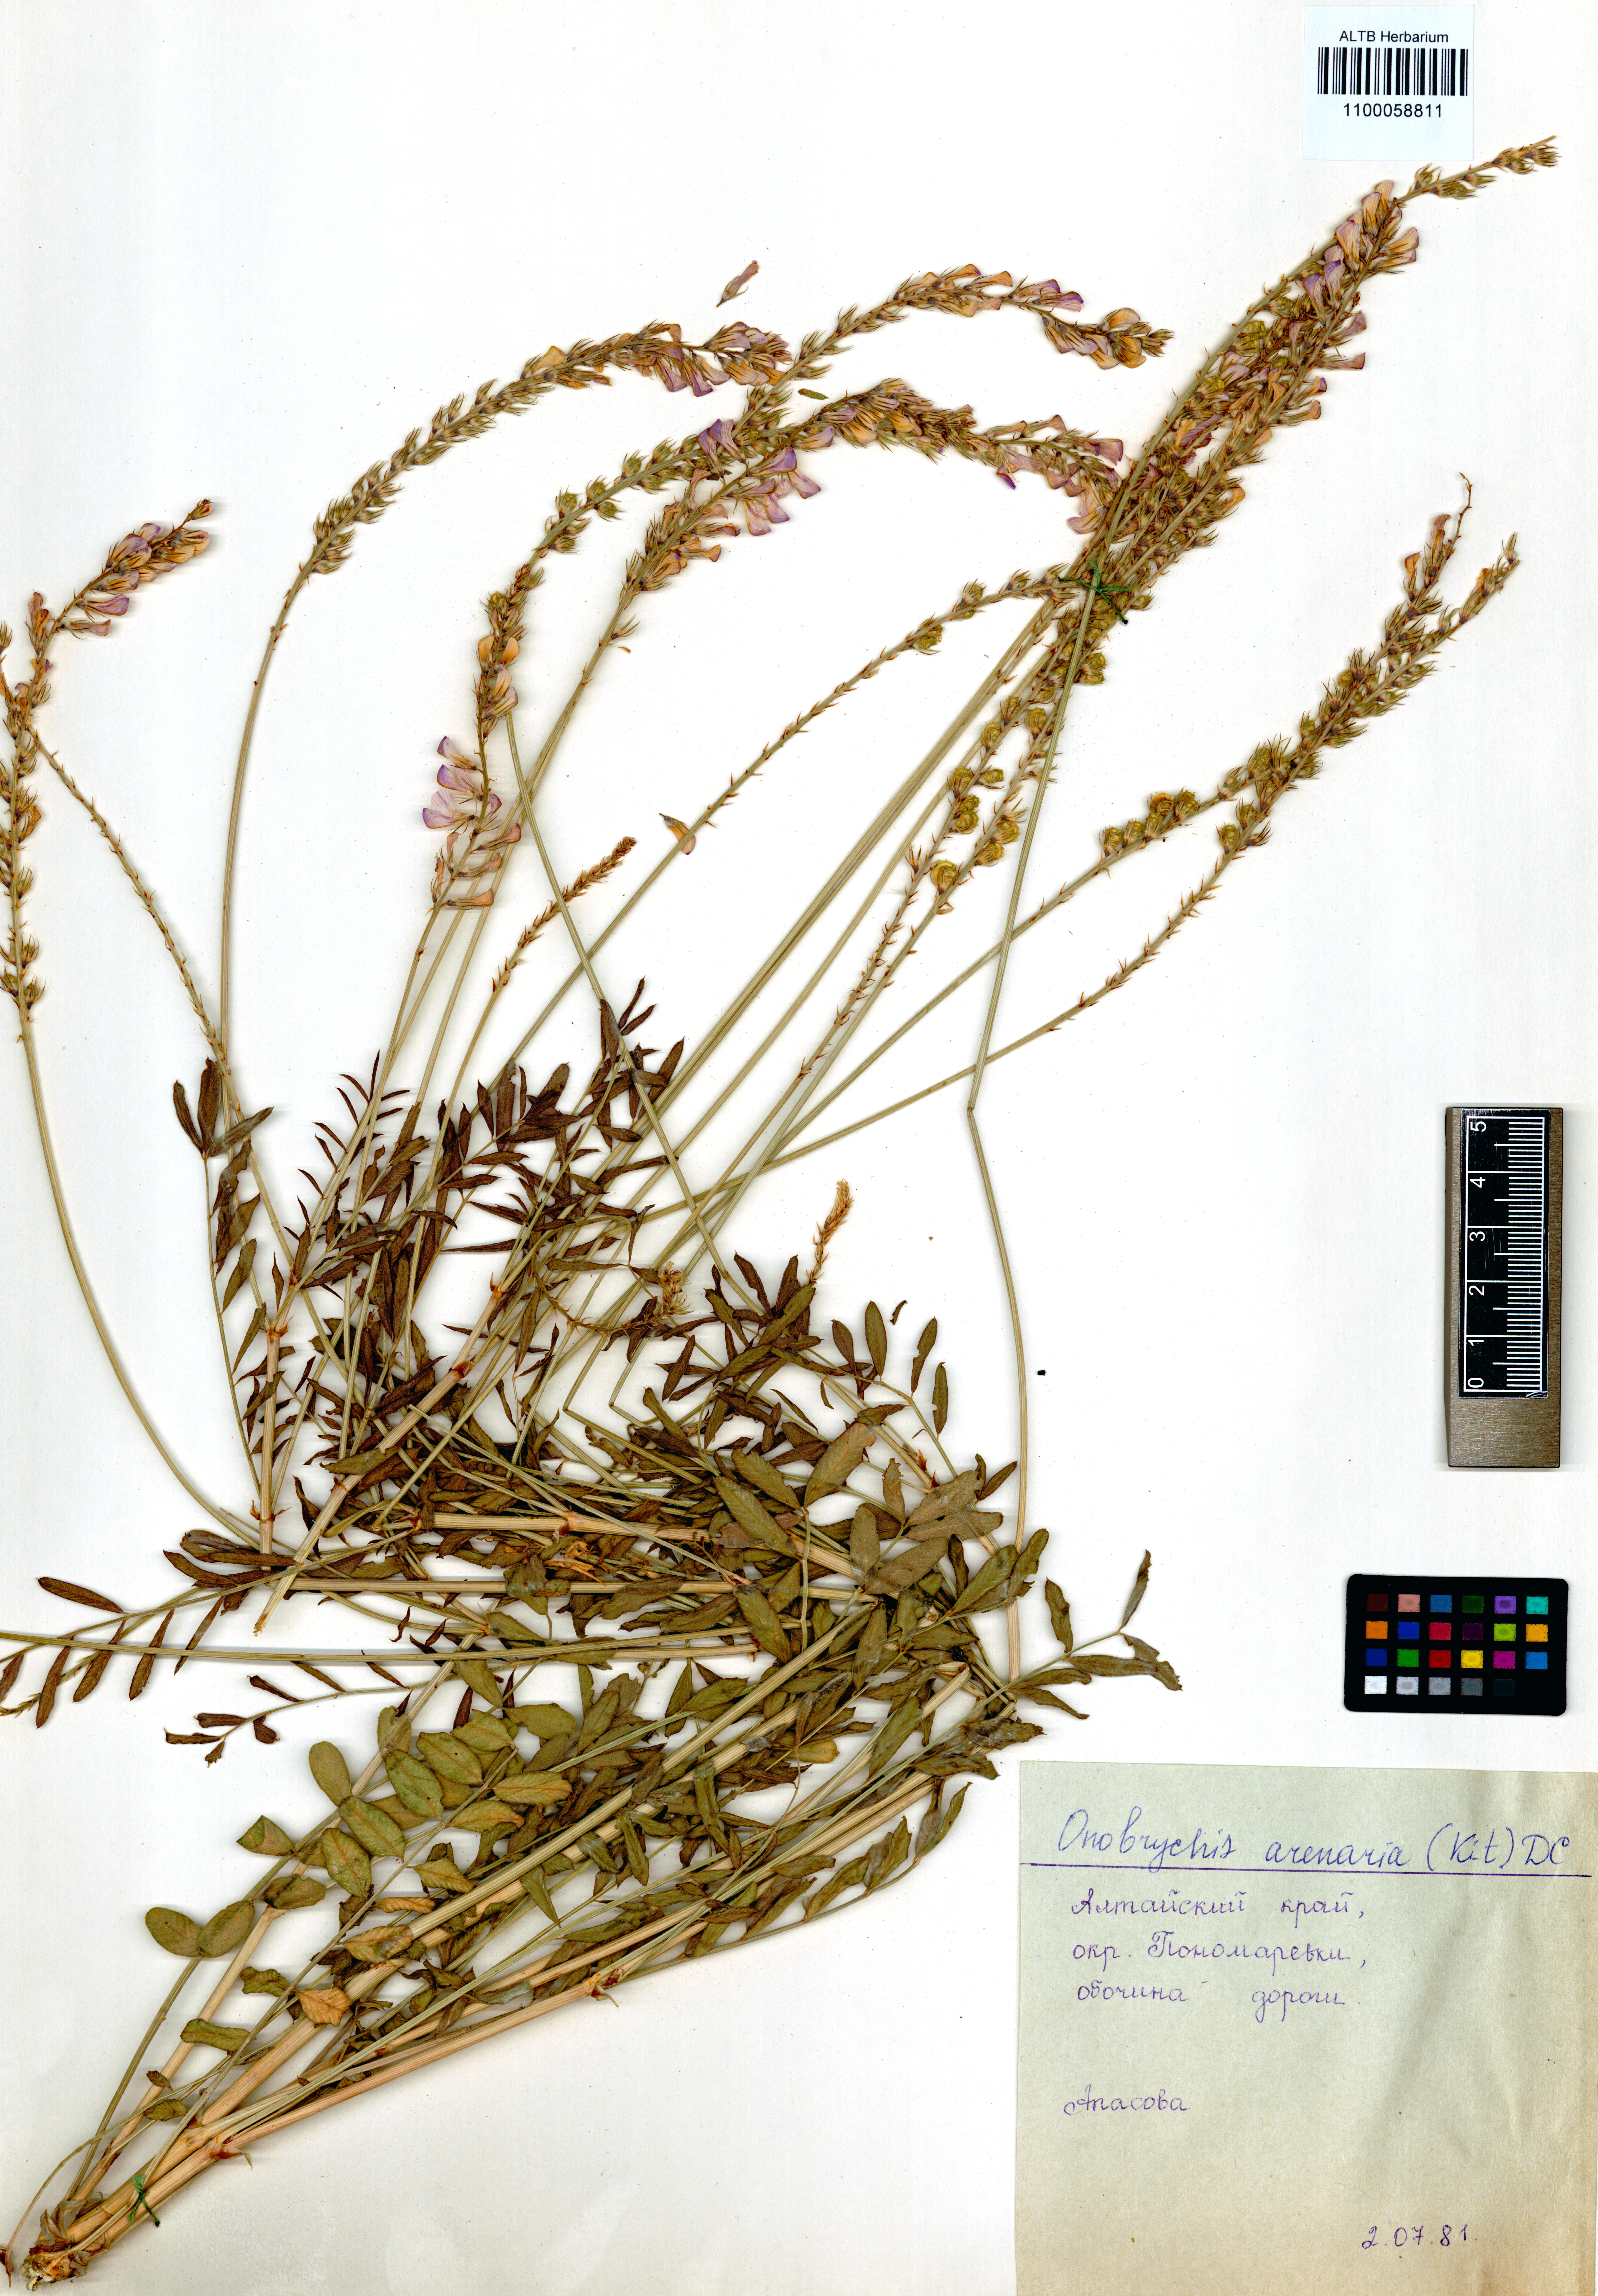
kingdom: Plantae
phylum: Tracheophyta
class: Magnoliopsida
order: Fabales
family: Fabaceae
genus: Onobrychis
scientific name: Onobrychis arenaria
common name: Sand esparcet
